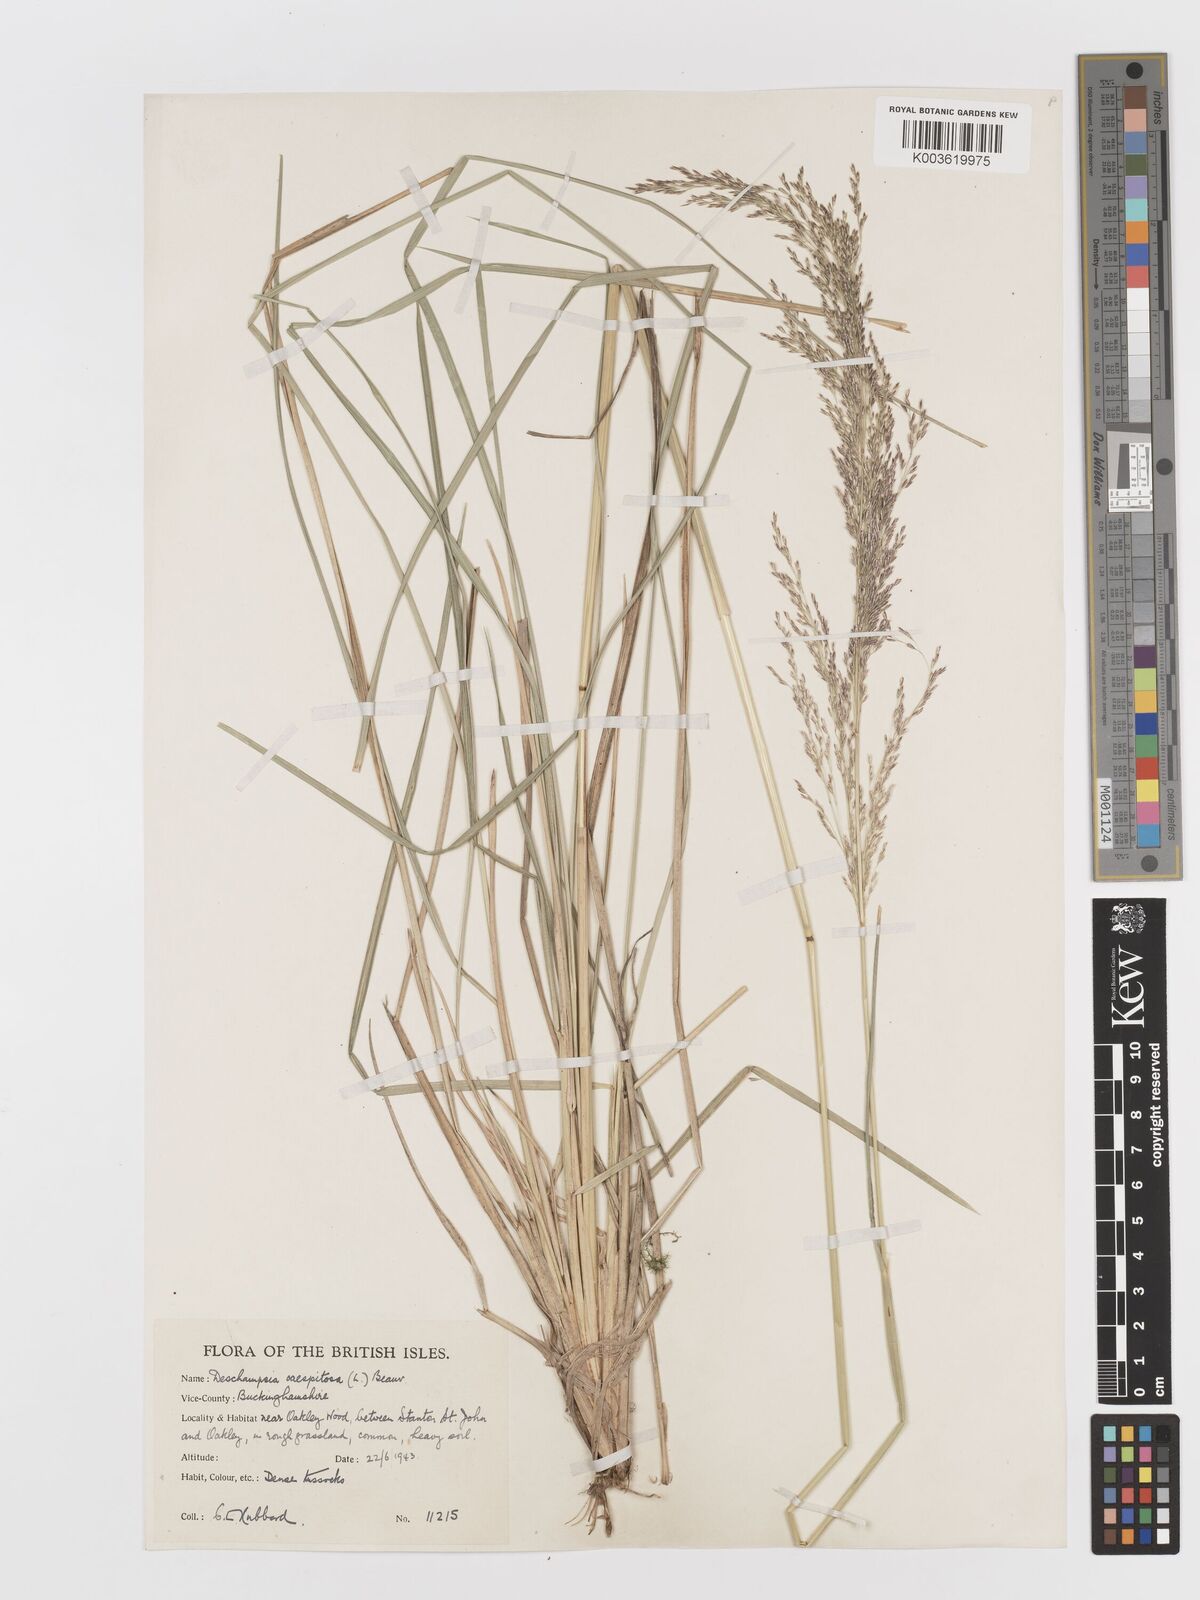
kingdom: Plantae
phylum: Tracheophyta
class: Liliopsida
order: Poales
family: Poaceae
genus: Deschampsia
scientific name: Deschampsia cespitosa
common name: Tufted hair-grass
